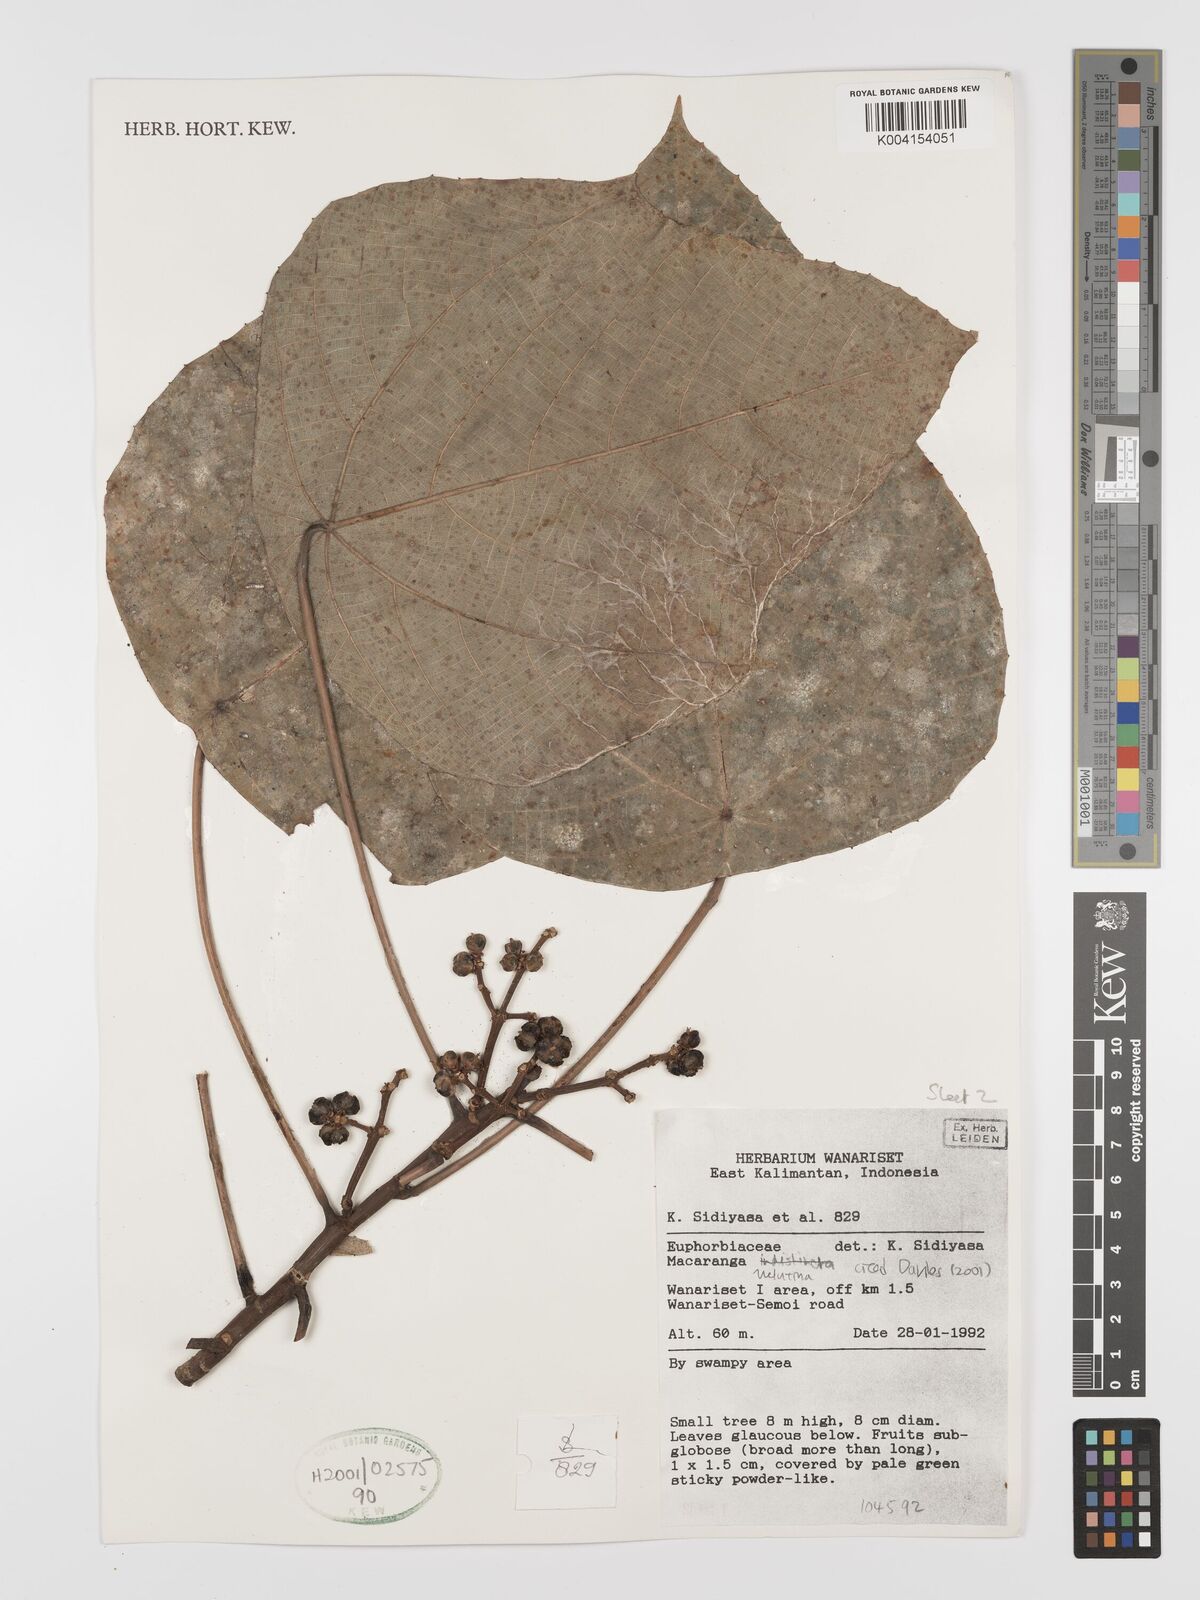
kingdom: Plantae
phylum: Tracheophyta
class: Magnoliopsida
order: Malpighiales
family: Euphorbiaceae
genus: Macaranga
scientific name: Macaranga indistincta
